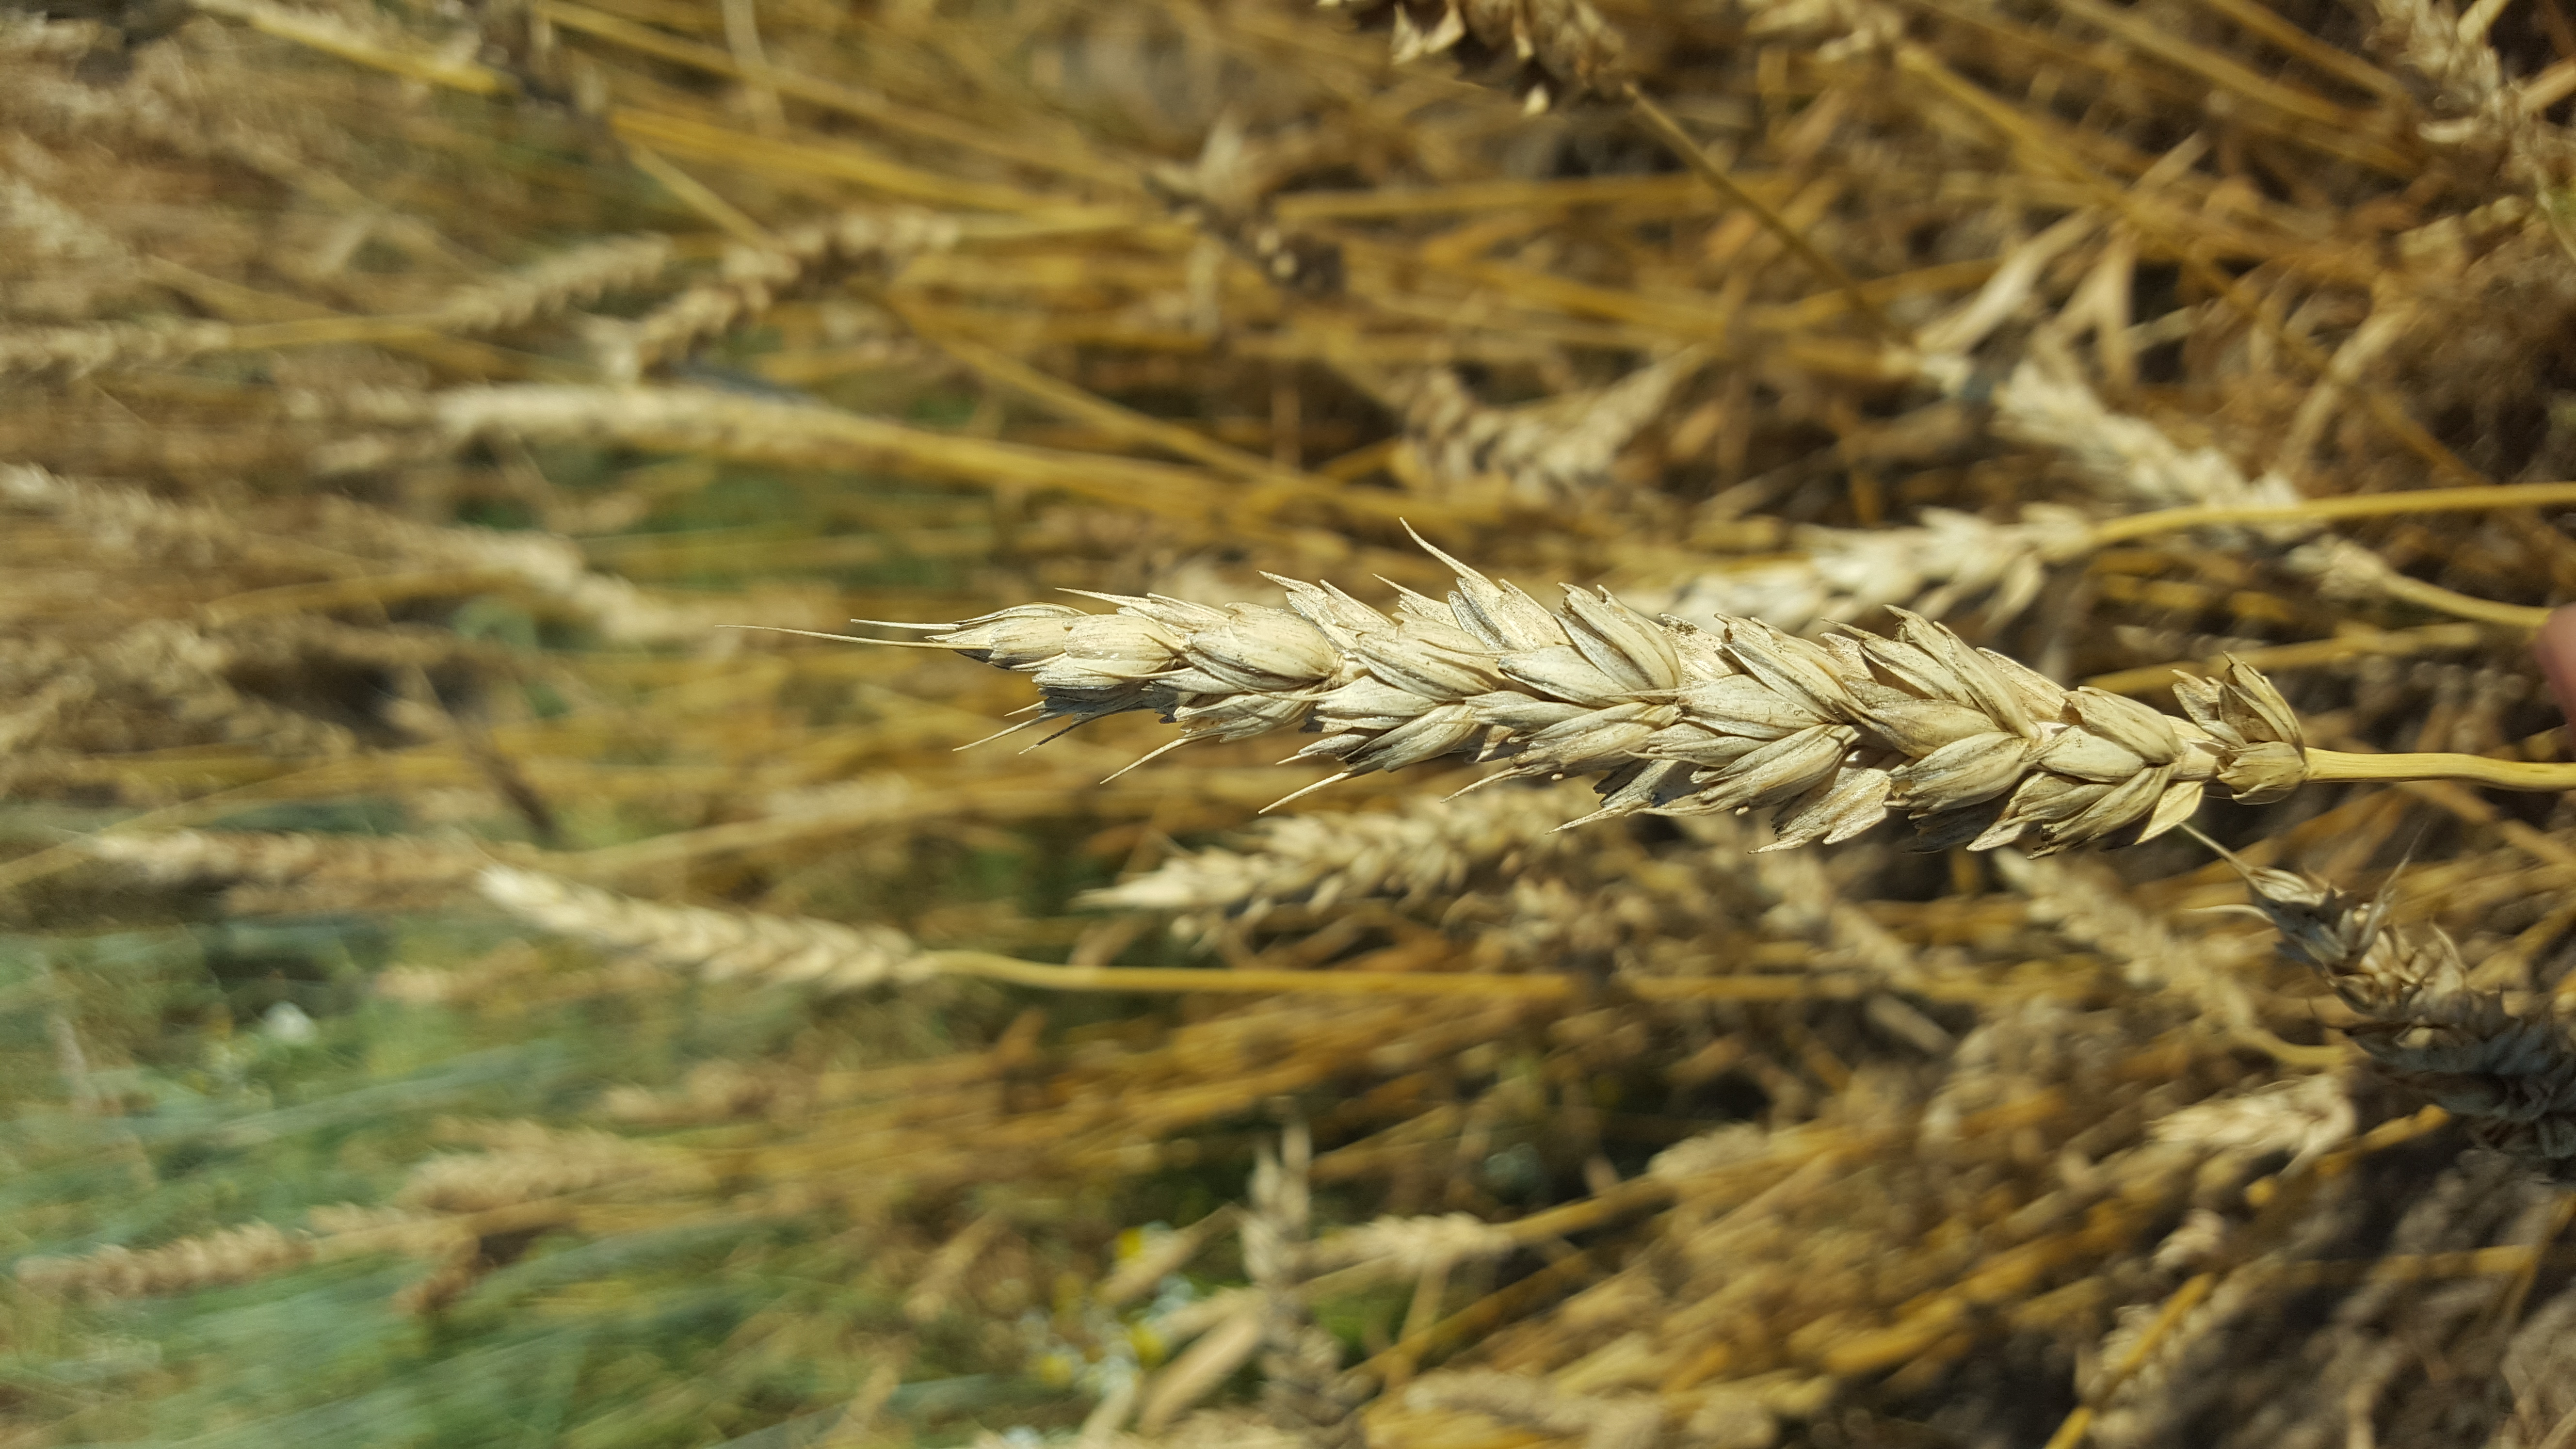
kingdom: Plantae
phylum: Tracheophyta
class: Liliopsida
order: Poales
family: Poaceae
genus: Triticum
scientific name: Triticum aestivum
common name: Common wheat
